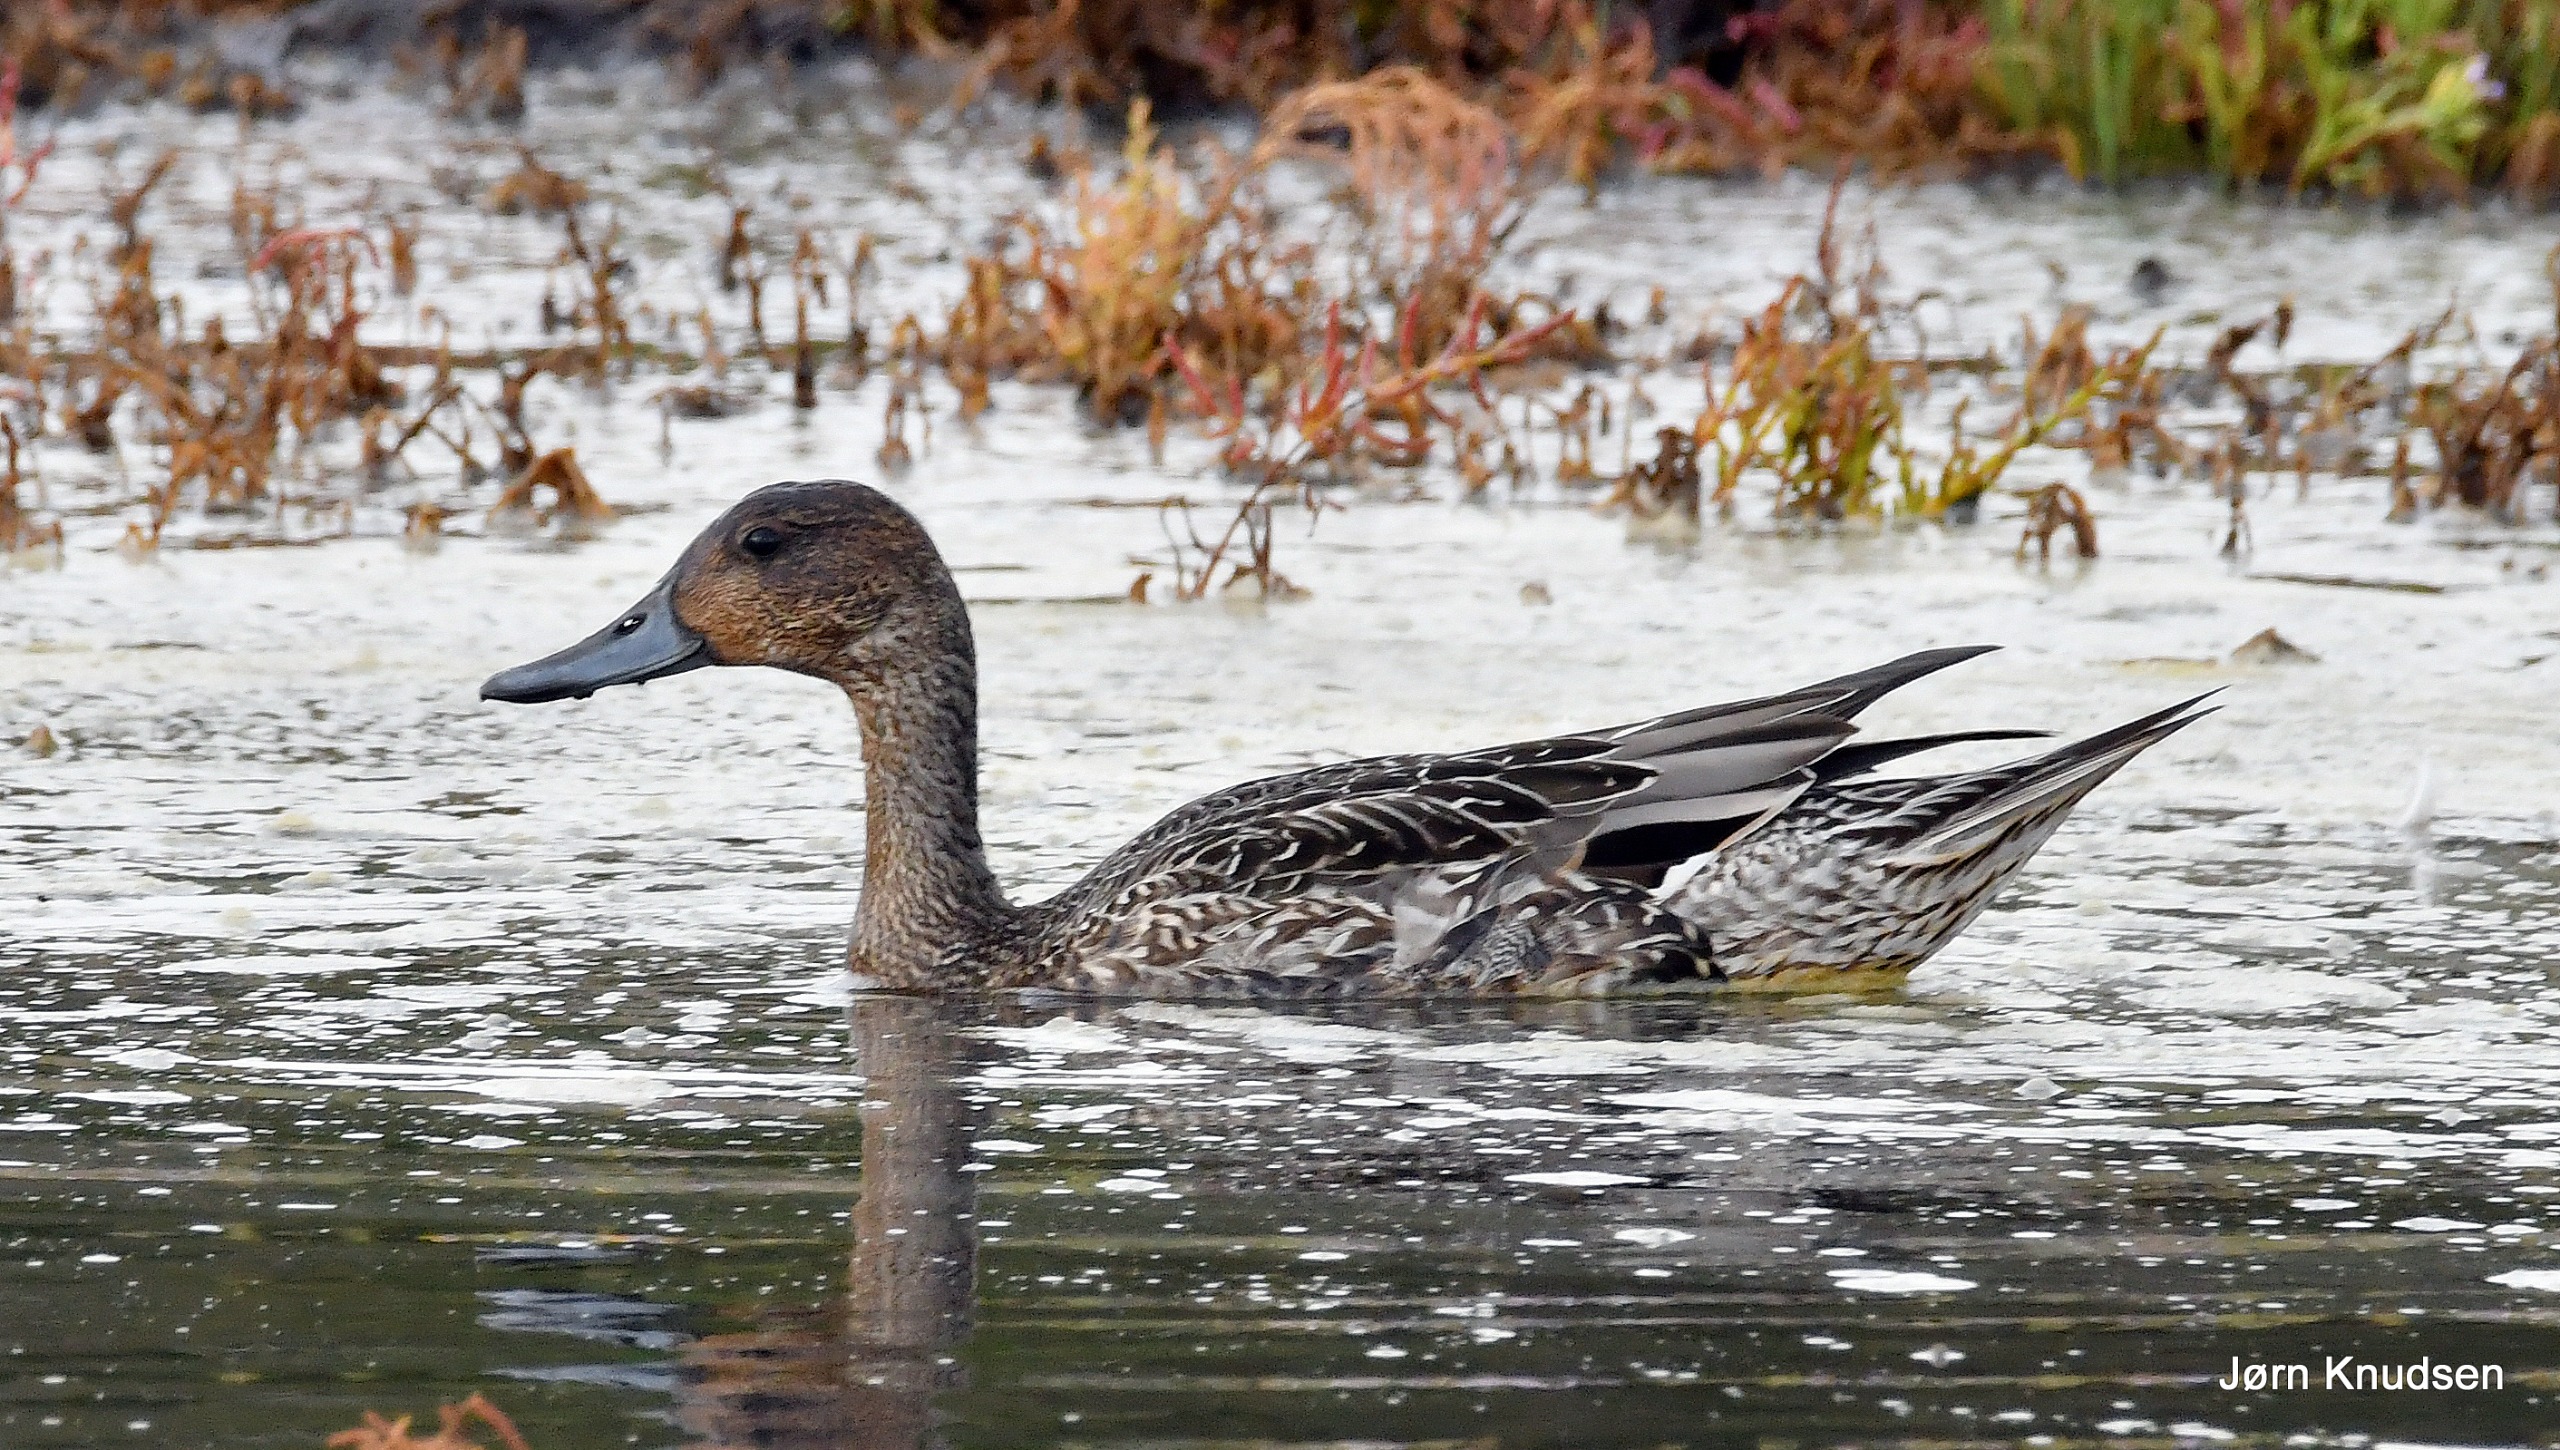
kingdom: Animalia
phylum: Chordata
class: Aves
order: Anseriformes
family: Anatidae
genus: Anas
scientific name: Anas acuta
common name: Spidsand
